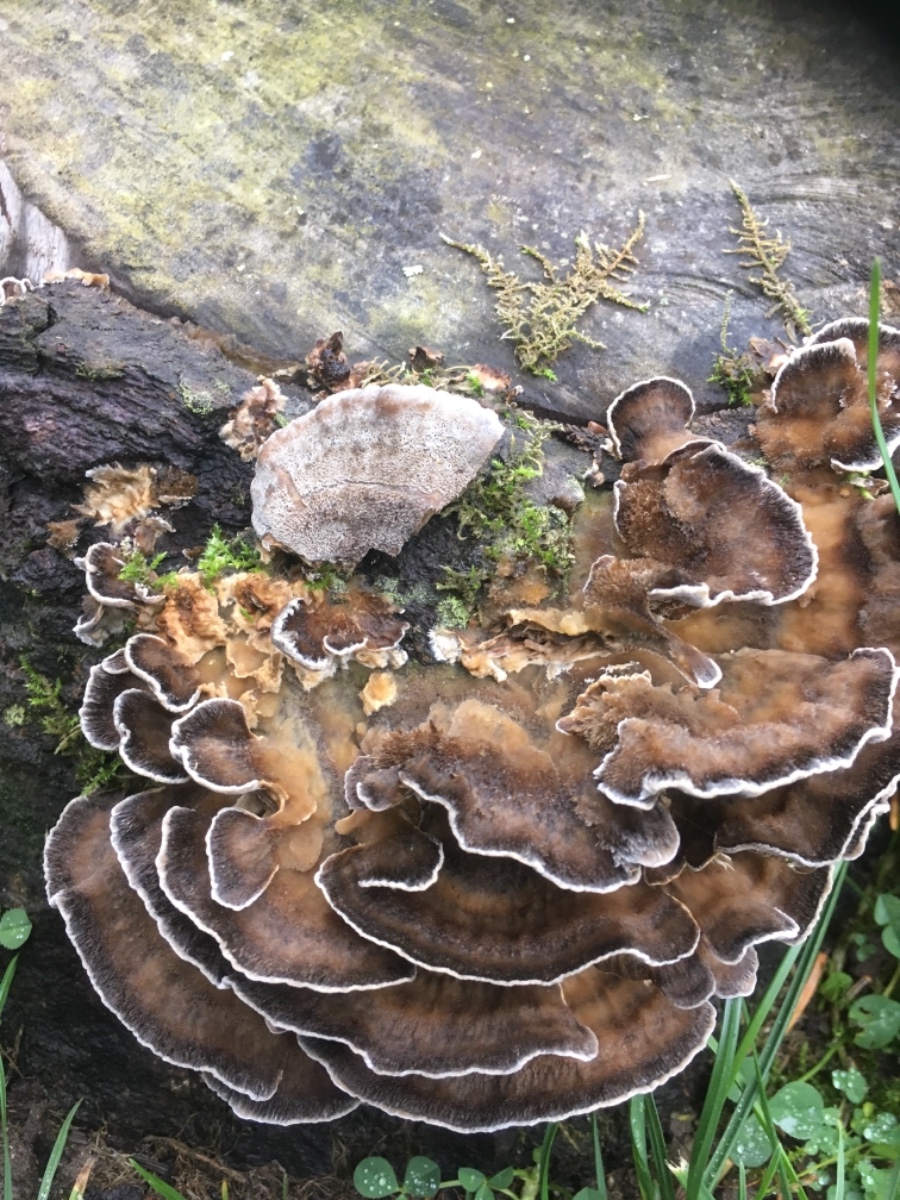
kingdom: Fungi
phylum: Basidiomycota
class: Agaricomycetes
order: Polyporales
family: Phanerochaetaceae
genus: Bjerkandera
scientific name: Bjerkandera adusta
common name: sveden sodporesvamp
